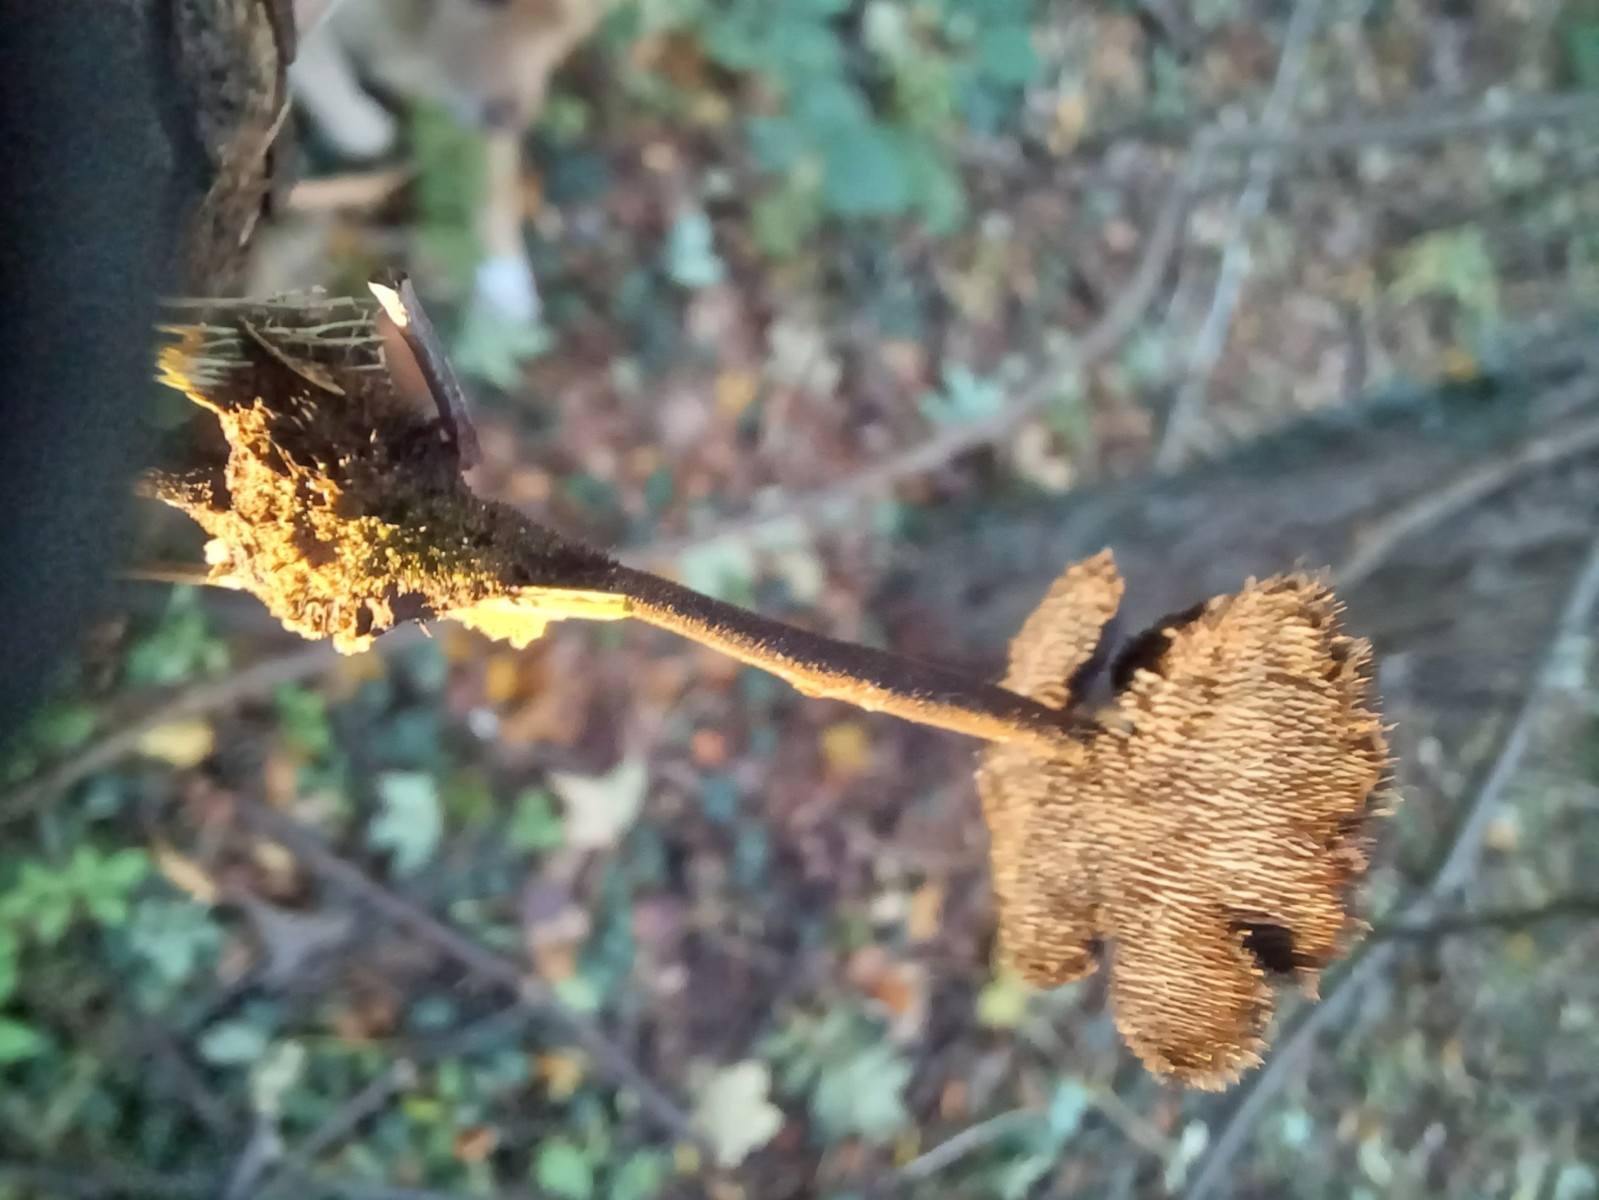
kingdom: Fungi
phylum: Basidiomycota
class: Agaricomycetes
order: Russulales
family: Auriscalpiaceae
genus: Auriscalpium
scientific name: Auriscalpium vulgare
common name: koglepigsvamp
